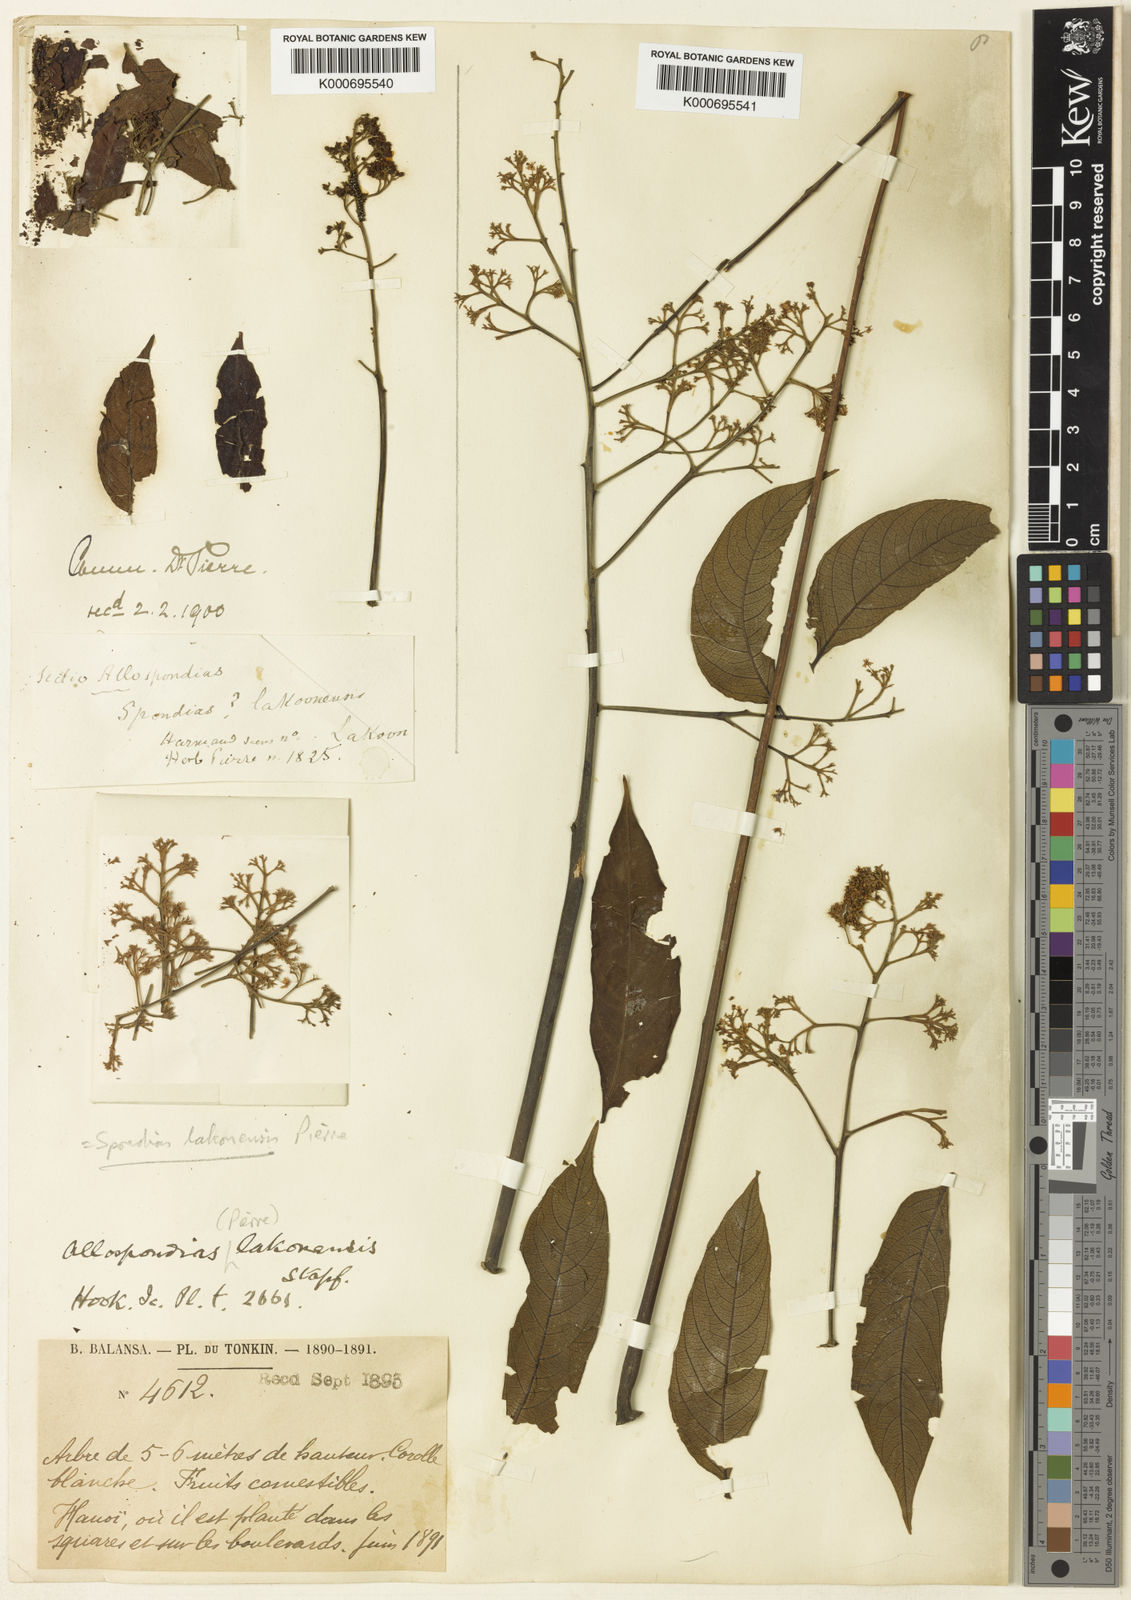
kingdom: Plantae
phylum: Tracheophyta
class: Magnoliopsida
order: Sapindales
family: Anacardiaceae
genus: Allospondias
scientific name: Allospondias lakonensis
